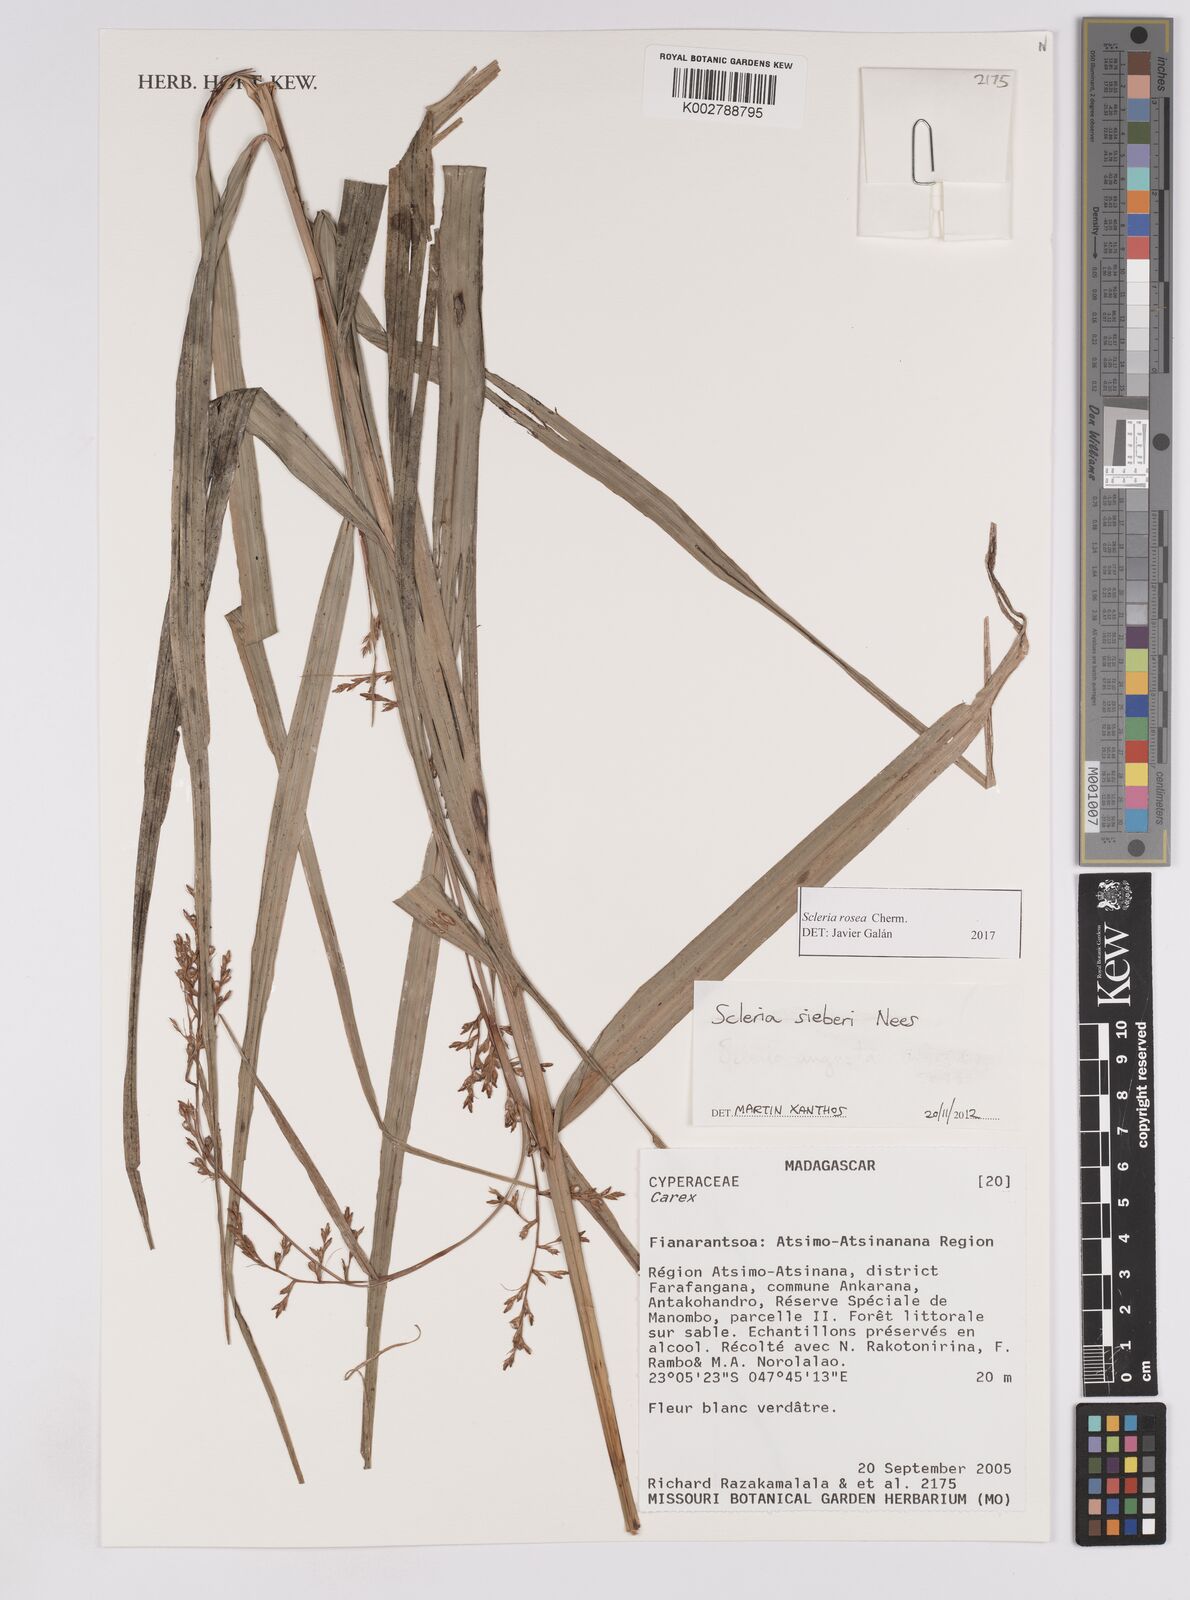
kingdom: Plantae
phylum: Tracheophyta
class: Liliopsida
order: Poales
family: Cyperaceae
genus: Scleria
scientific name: Scleria trialata
